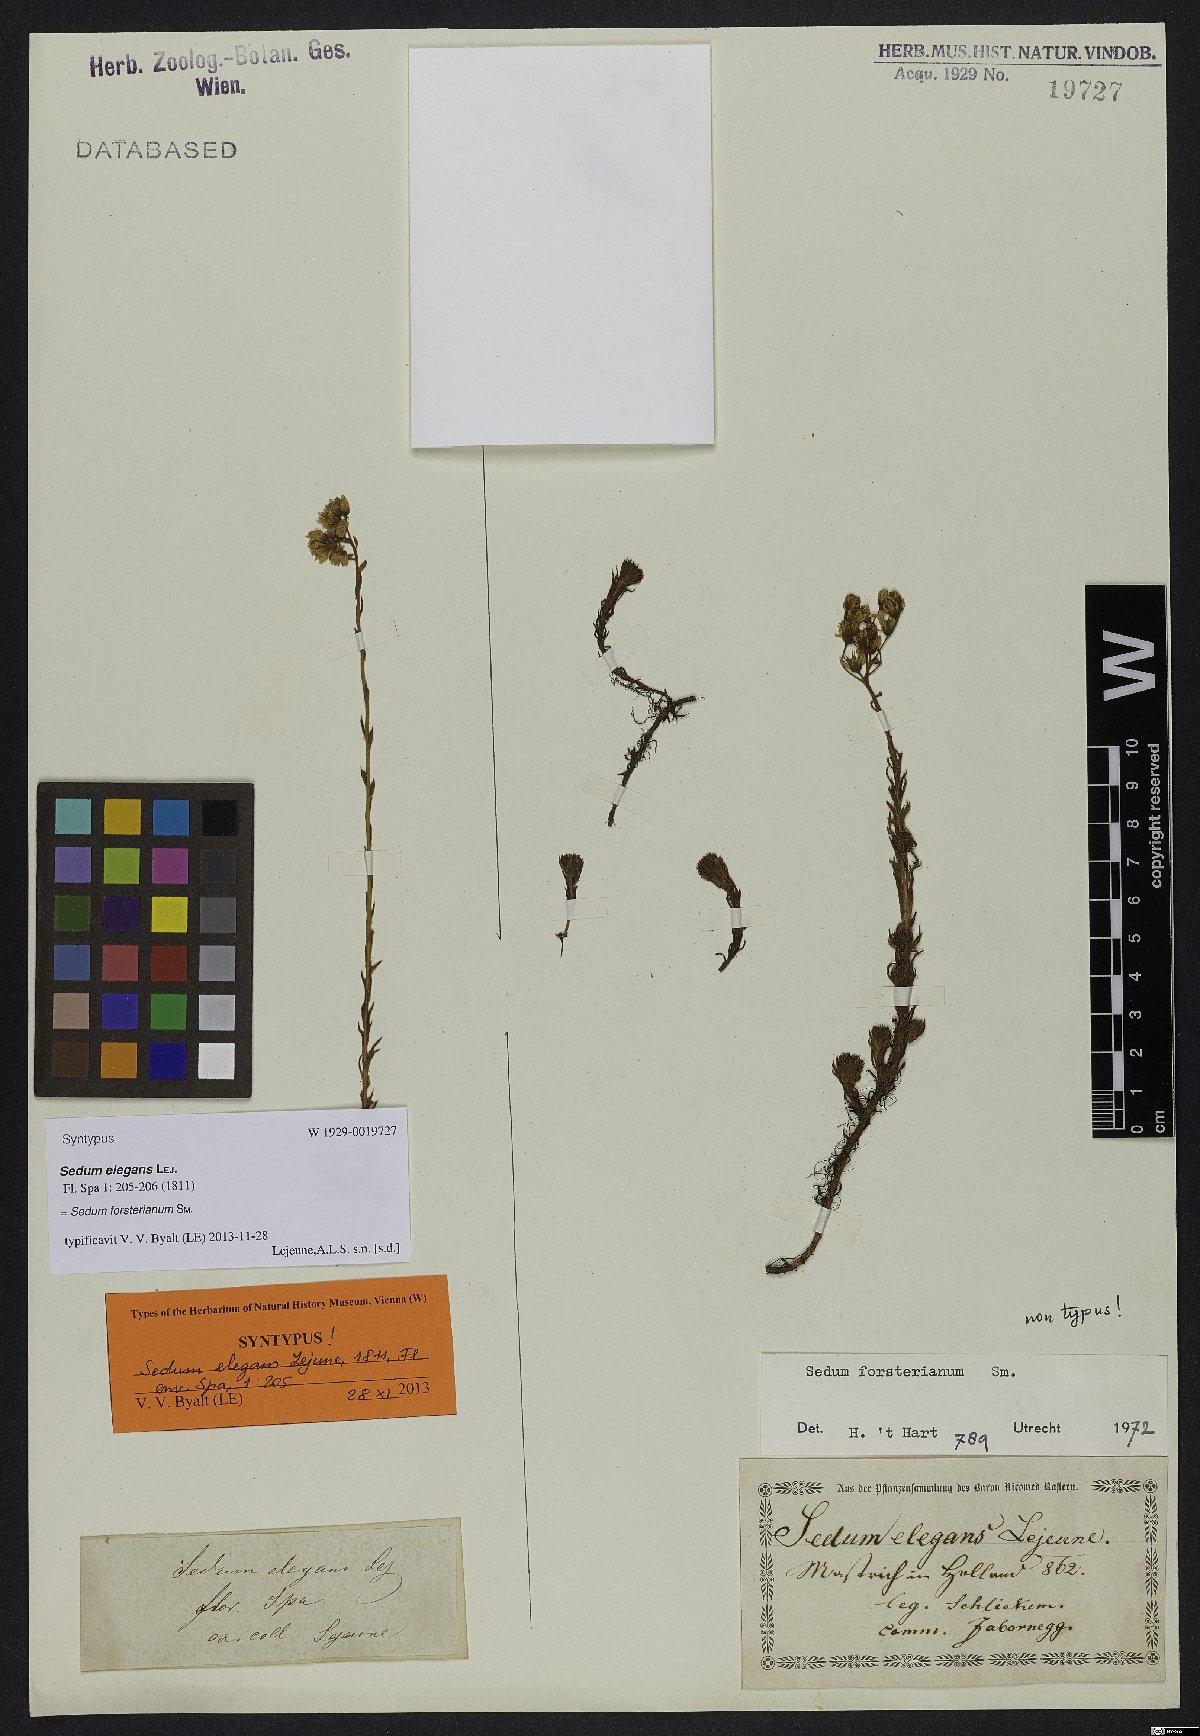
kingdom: Plantae
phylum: Tracheophyta
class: Magnoliopsida
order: Saxifragales
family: Crassulaceae
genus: Petrosedum
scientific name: Petrosedum forsterianum
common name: Forster's stonecrop
